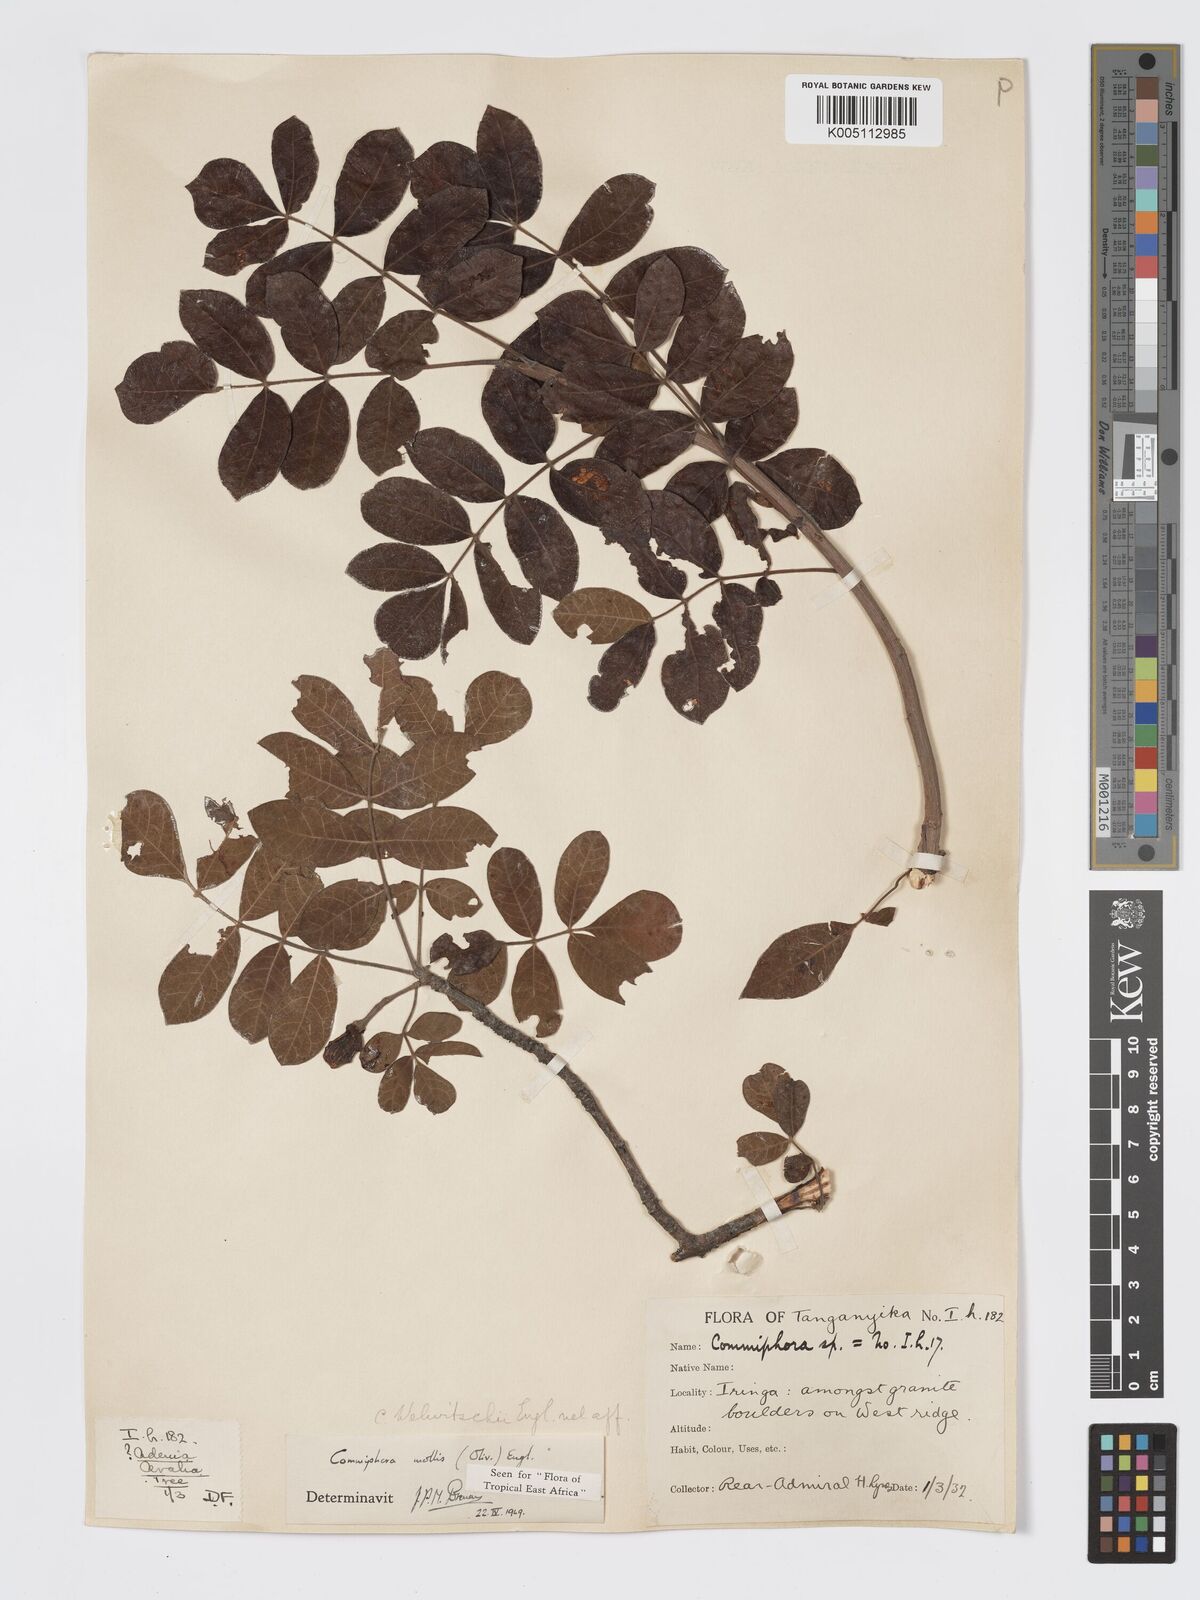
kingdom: Plantae
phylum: Tracheophyta
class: Magnoliopsida
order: Sapindales
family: Burseraceae
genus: Commiphora
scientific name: Commiphora mollis
